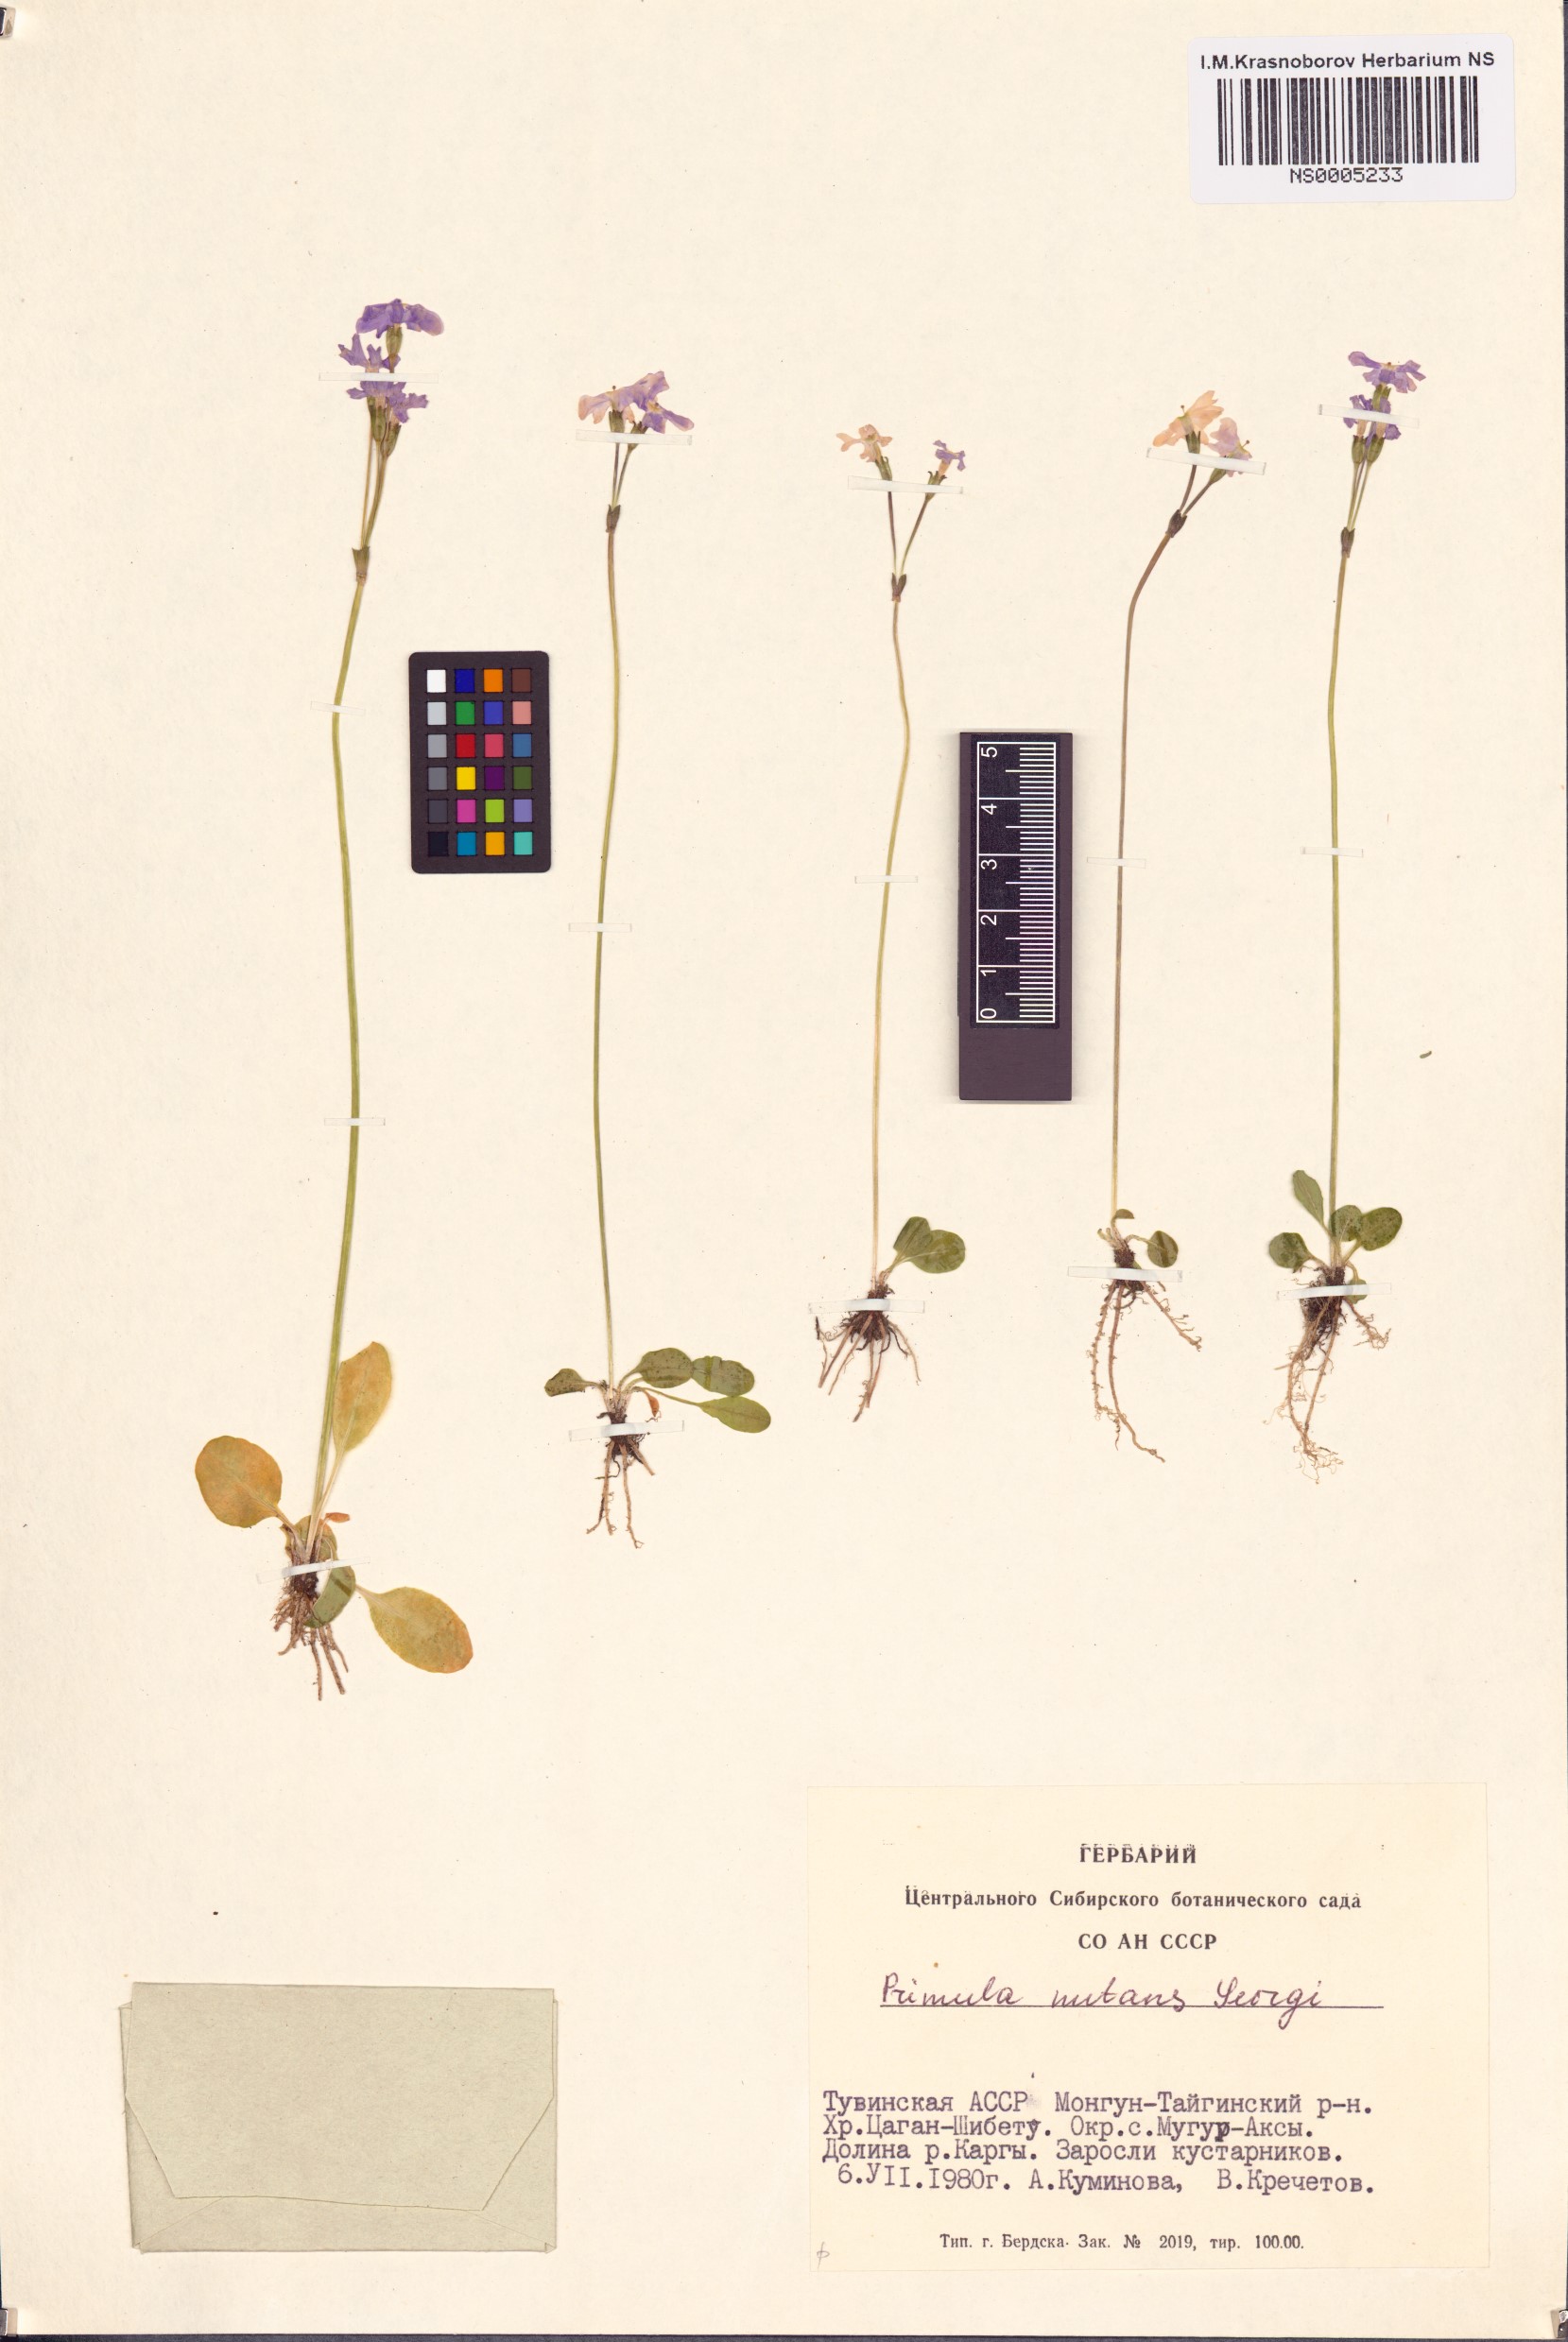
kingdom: Plantae
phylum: Tracheophyta
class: Magnoliopsida
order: Ericales
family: Primulaceae
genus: Primula
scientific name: Primula nutans
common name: Siberian primrose
